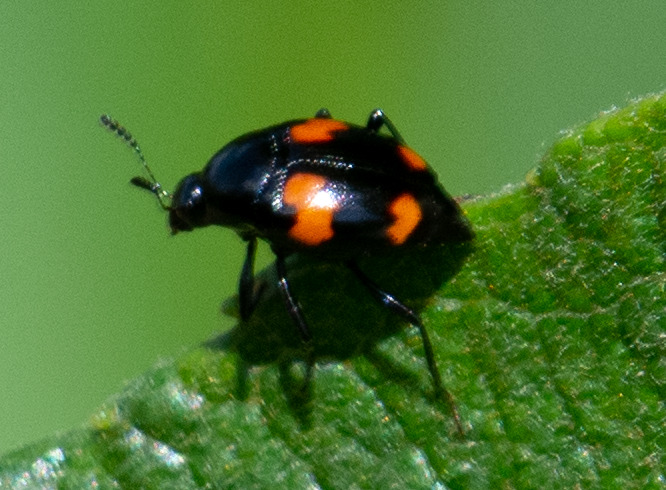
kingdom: Animalia
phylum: Arthropoda
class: Insecta
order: Coleoptera
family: Staphylinidae
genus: Scaphidium
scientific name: Scaphidium quadrimaculatum
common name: Dråberovbille
